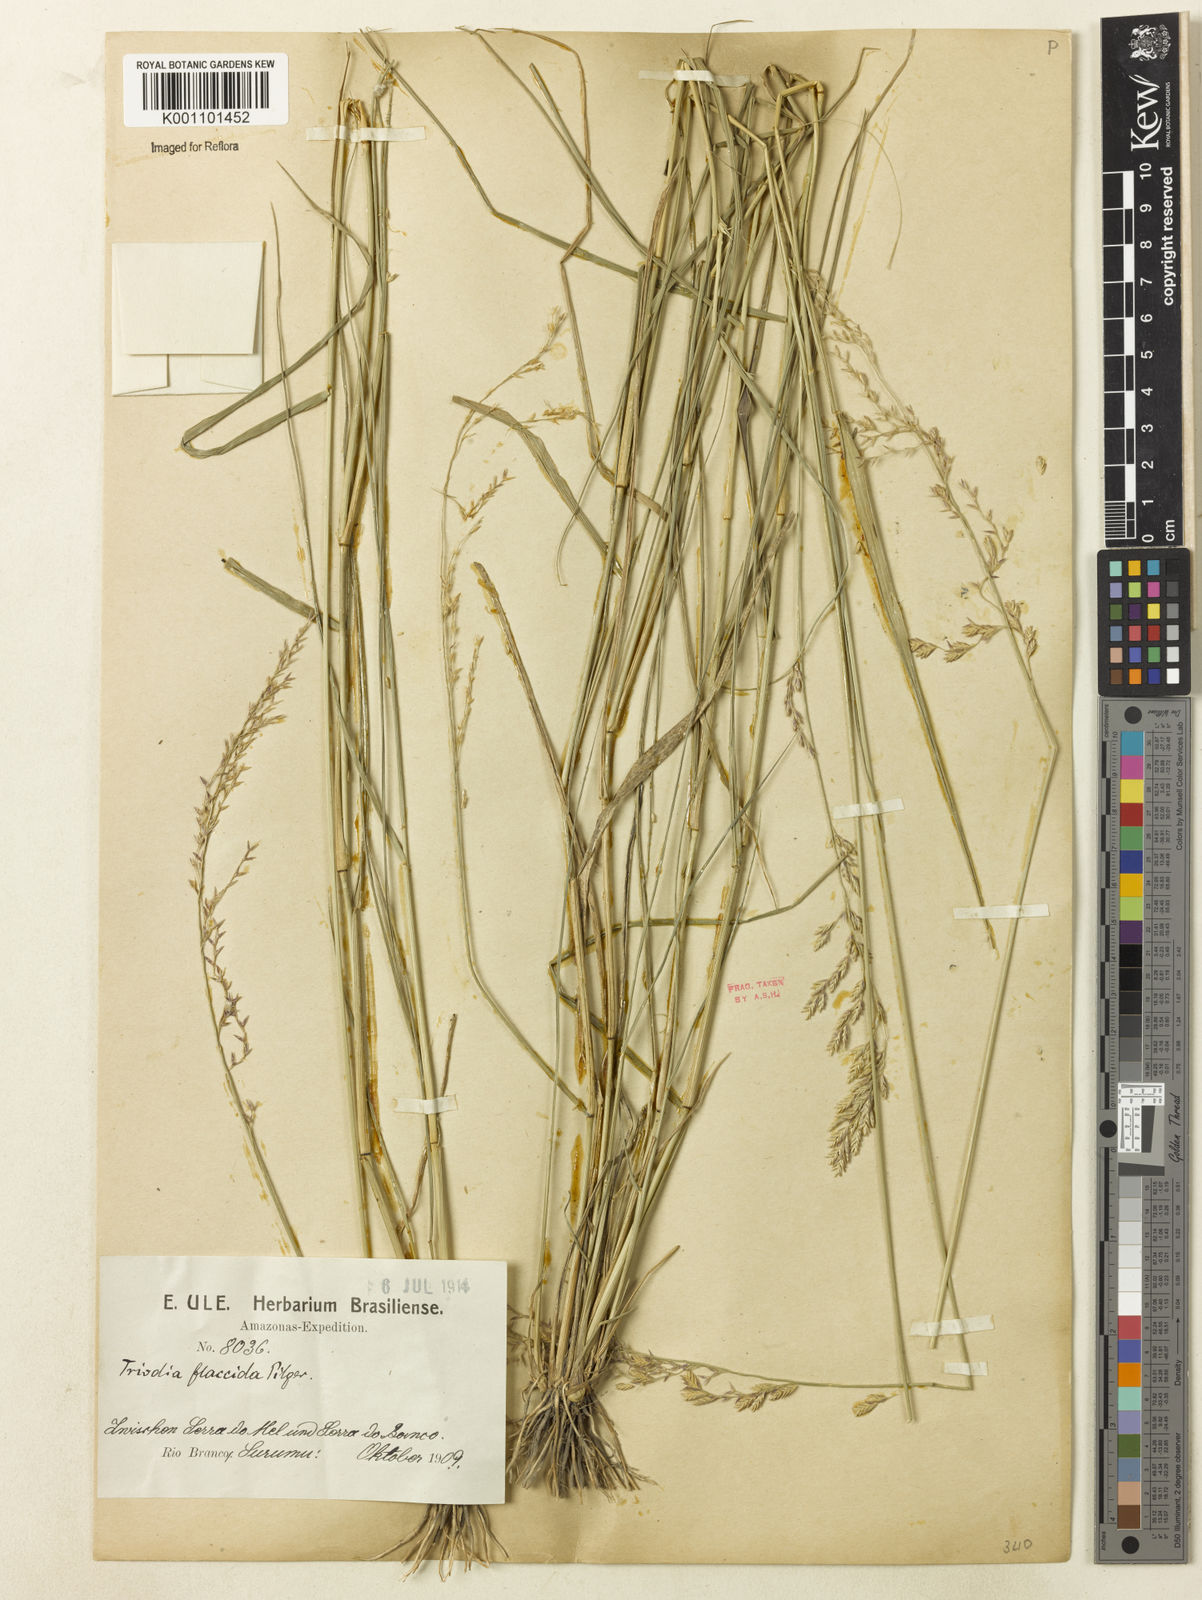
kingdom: Plantae
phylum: Tracheophyta
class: Liliopsida
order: Poales
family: Poaceae
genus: Tridens
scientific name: Tridens
